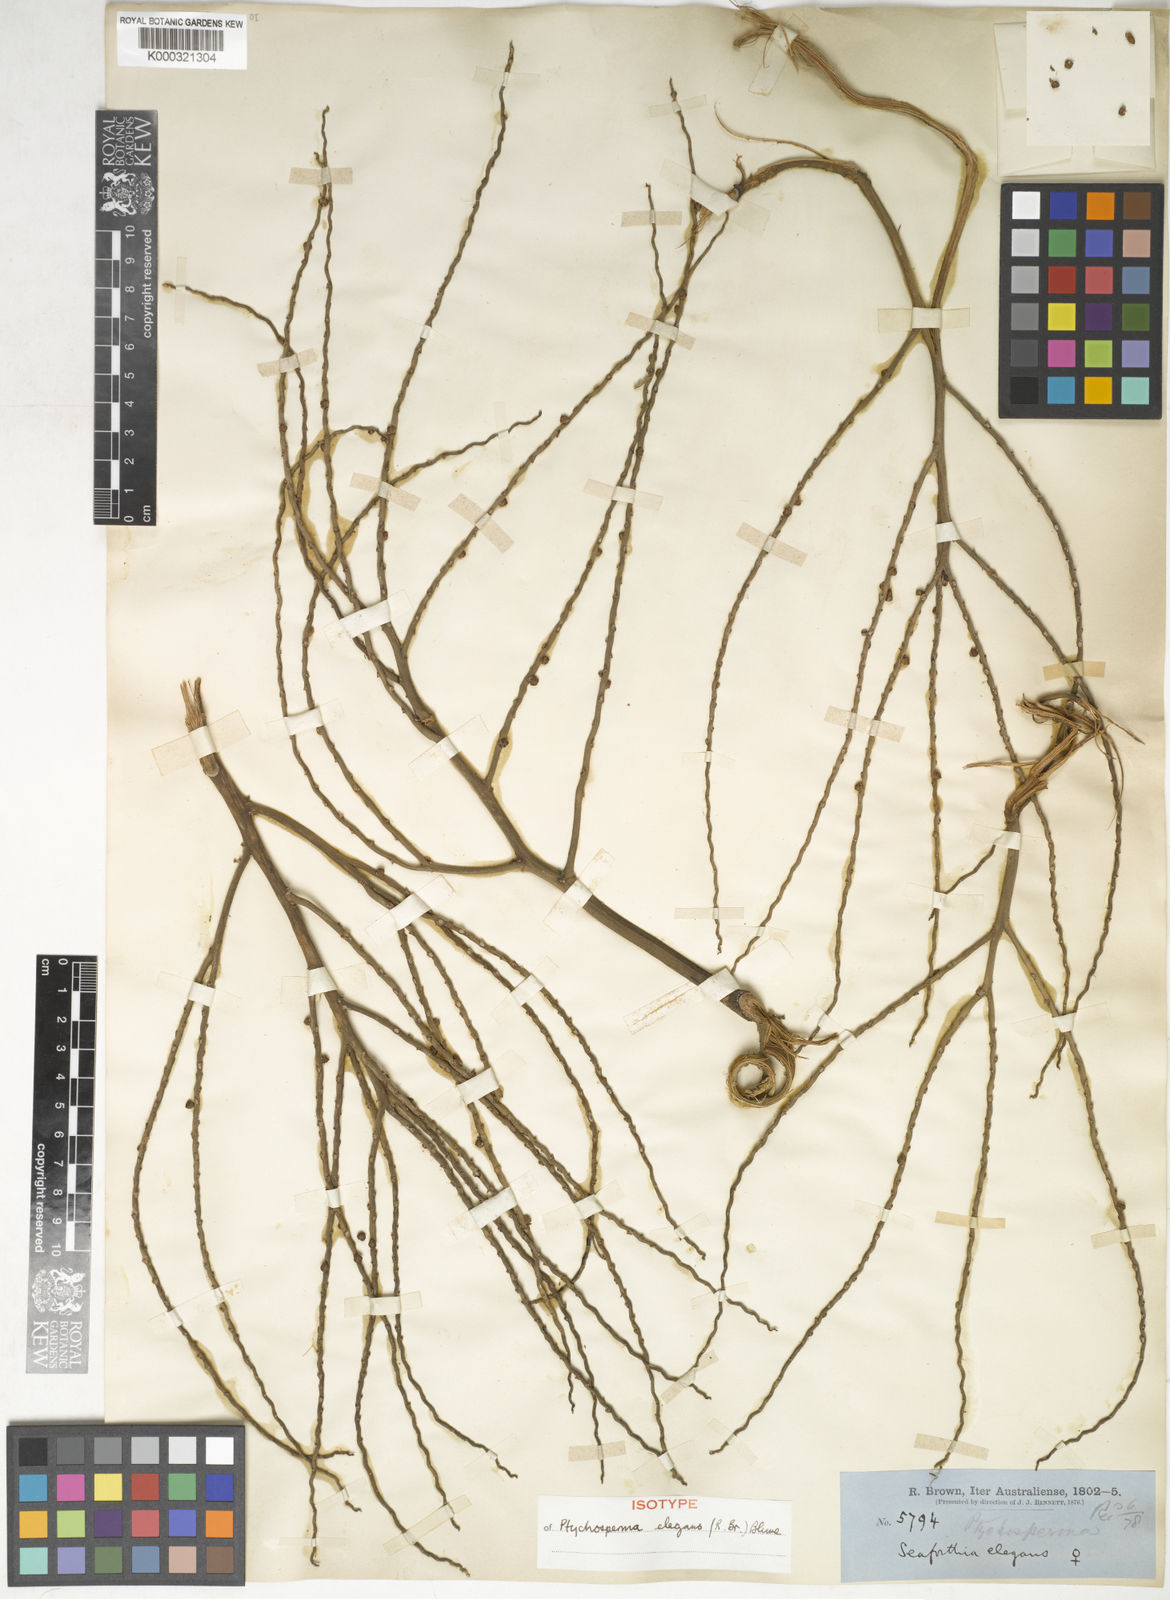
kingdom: Plantae
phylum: Tracheophyta
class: Liliopsida
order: Arecales
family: Arecaceae
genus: Ptychosperma
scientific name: Ptychosperma elegans
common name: Alexander palm
